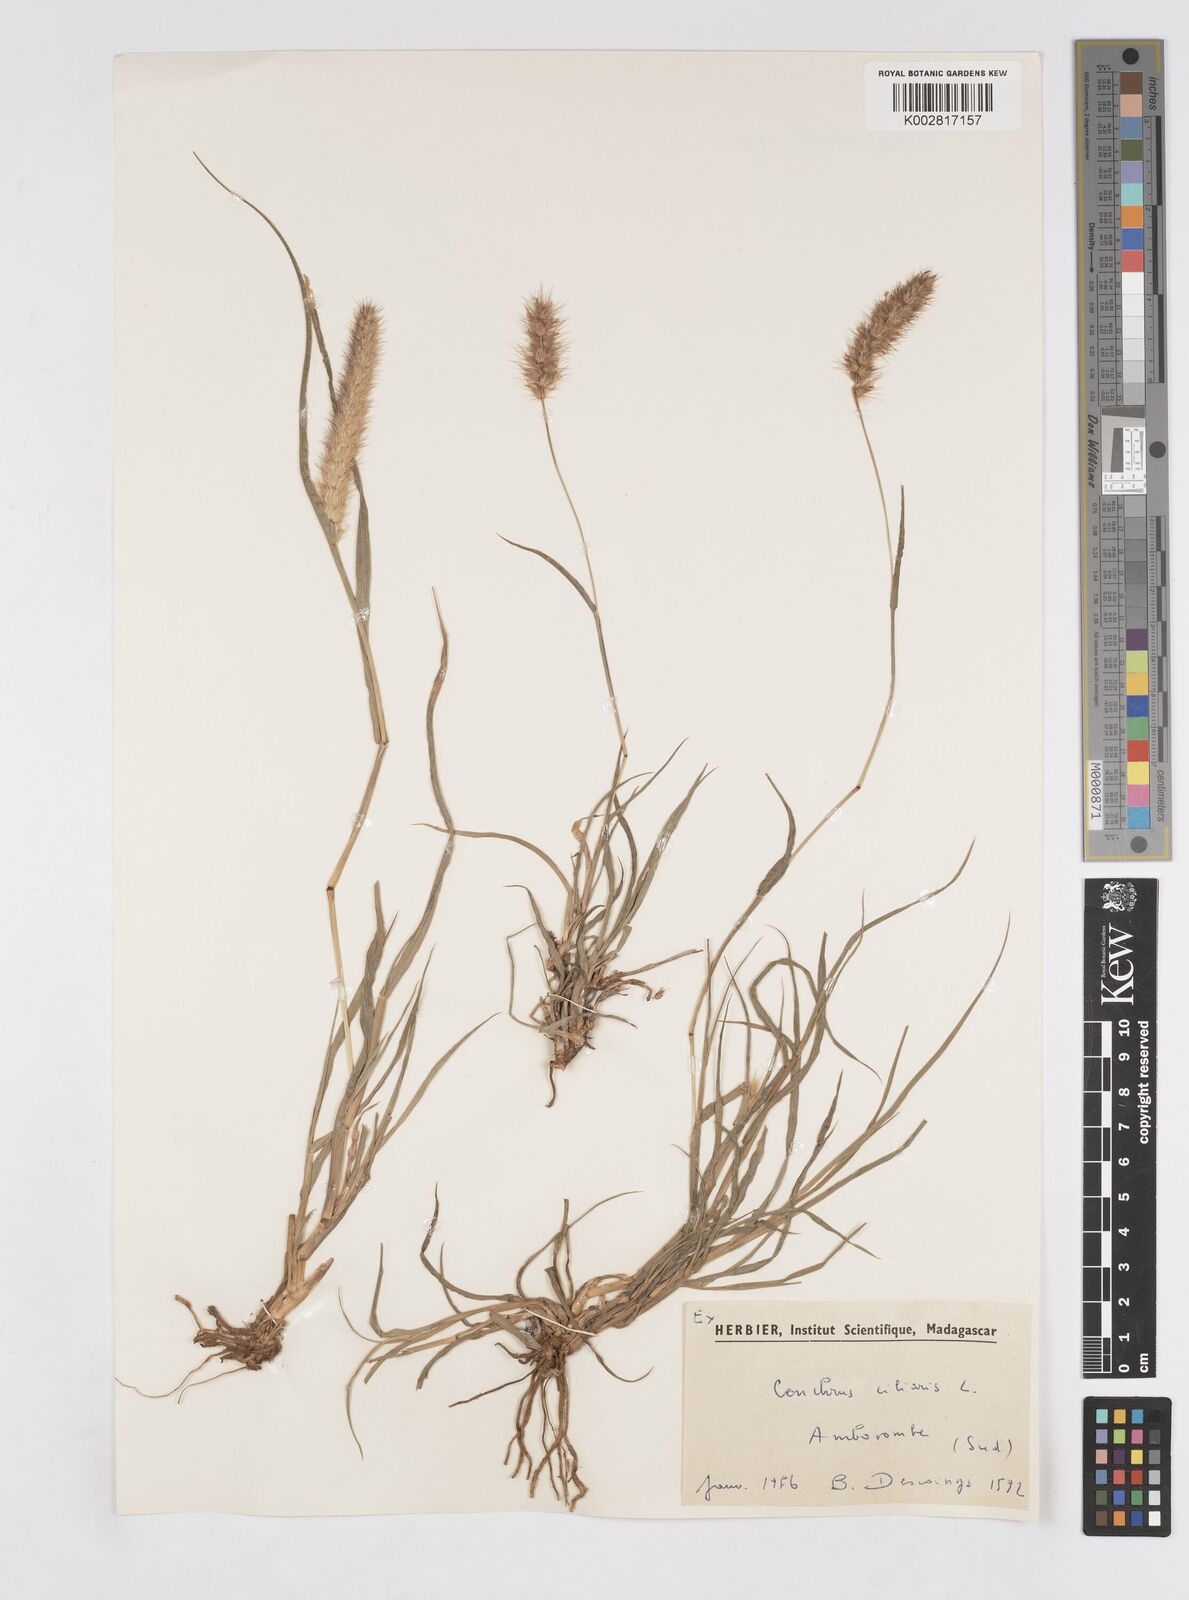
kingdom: Plantae
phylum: Tracheophyta
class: Liliopsida
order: Poales
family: Poaceae
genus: Cenchrus
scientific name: Cenchrus ciliaris
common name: Buffelgrass
